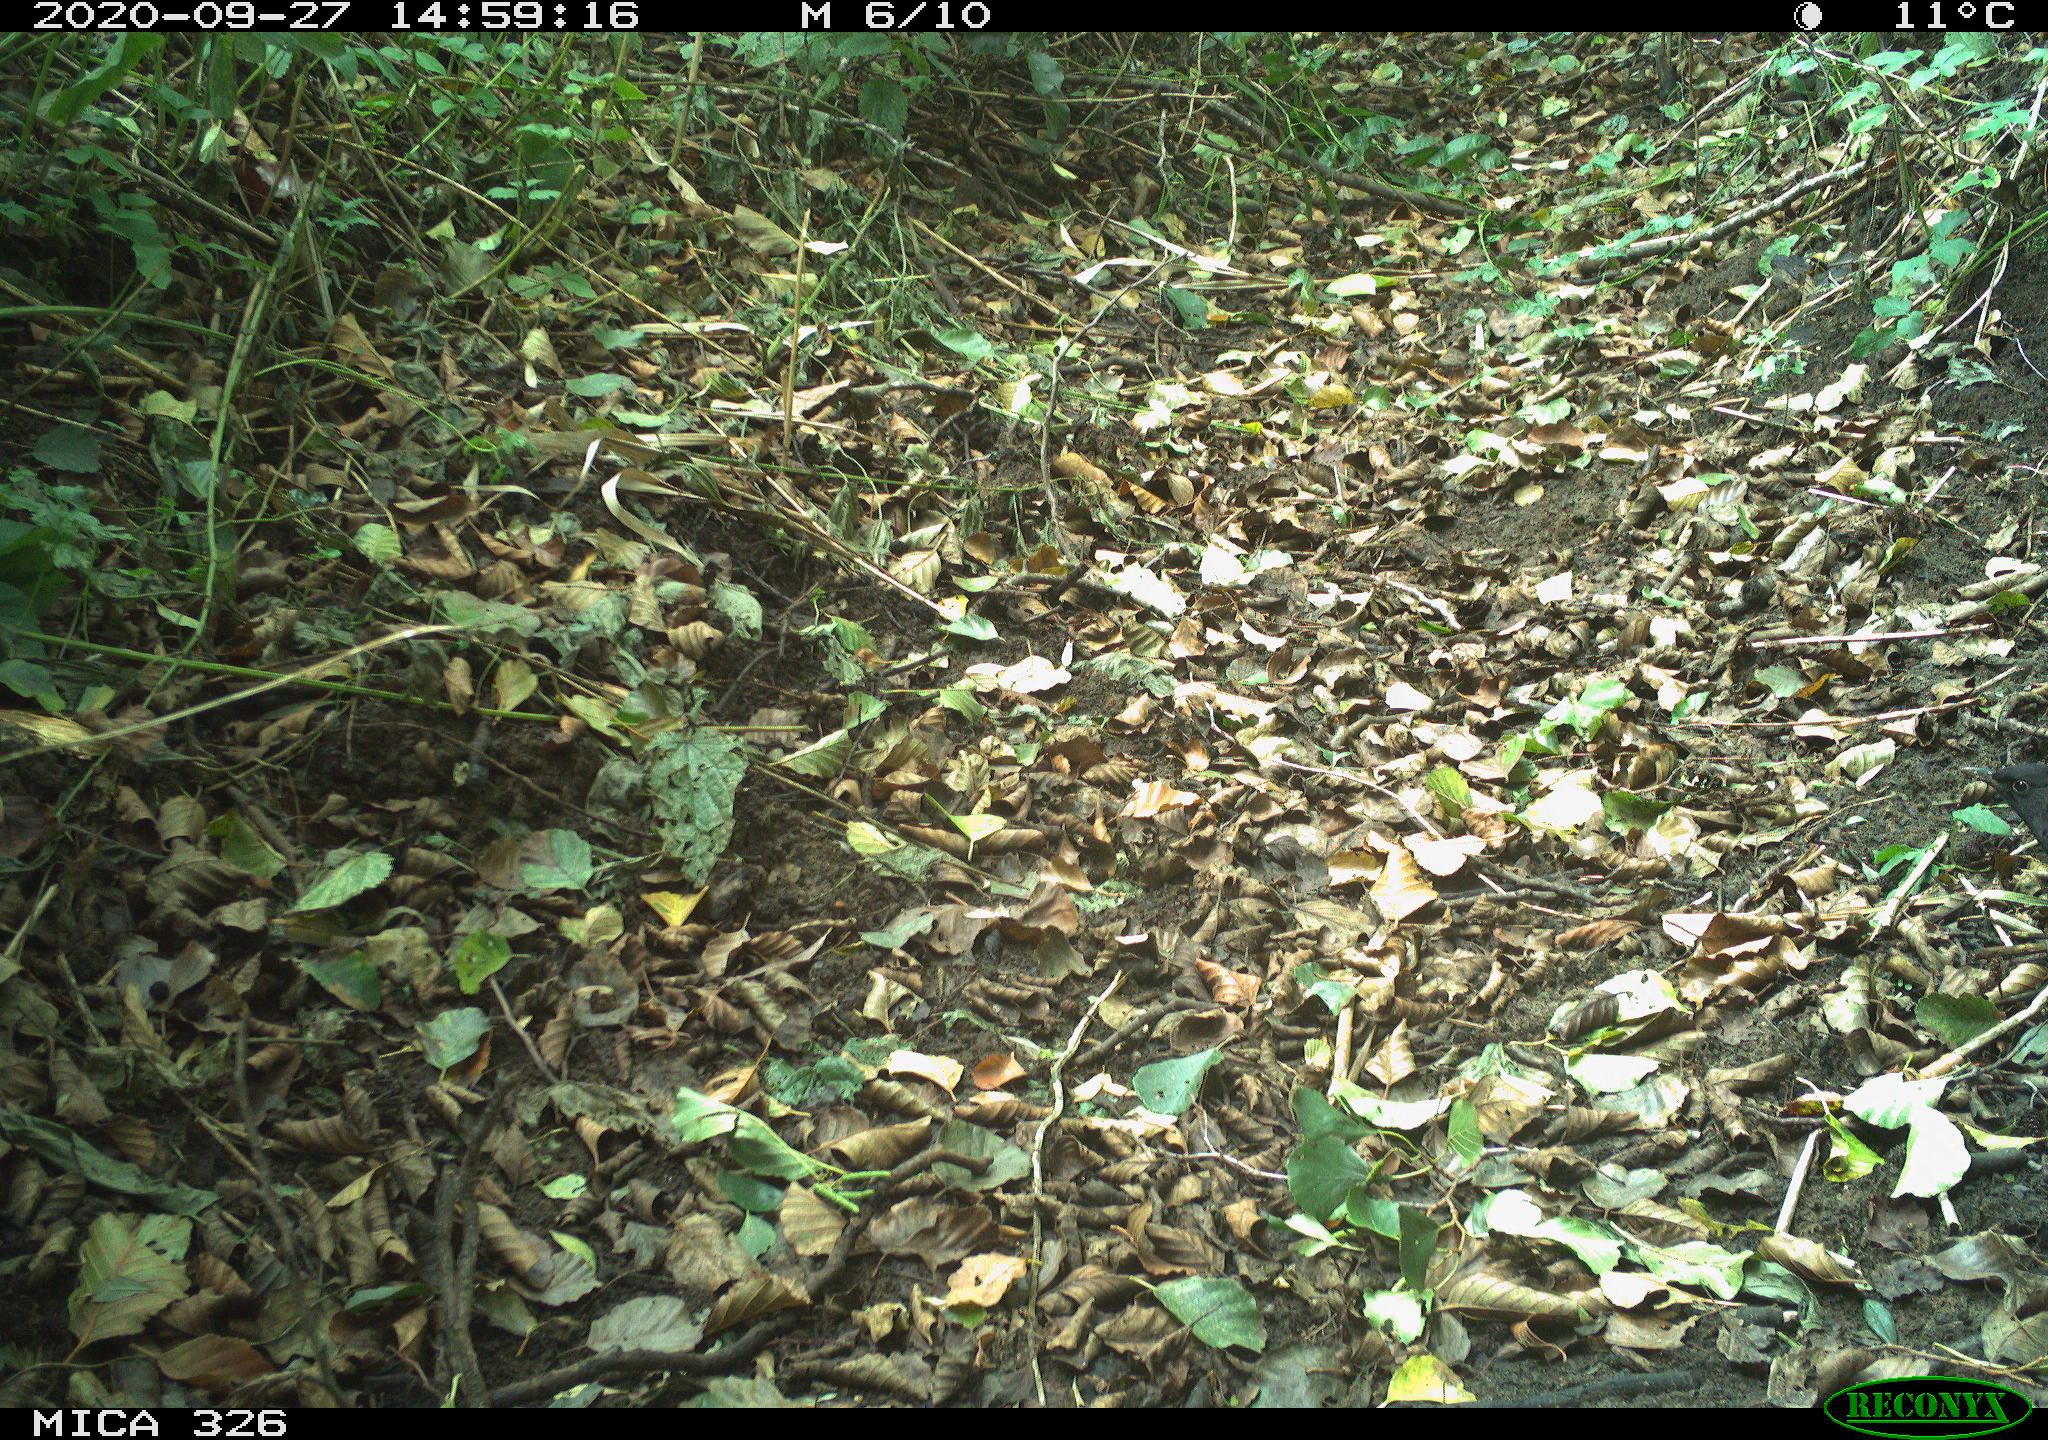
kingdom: Animalia
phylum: Chordata
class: Aves
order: Passeriformes
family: Turdidae
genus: Turdus
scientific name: Turdus merula
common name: Common blackbird
